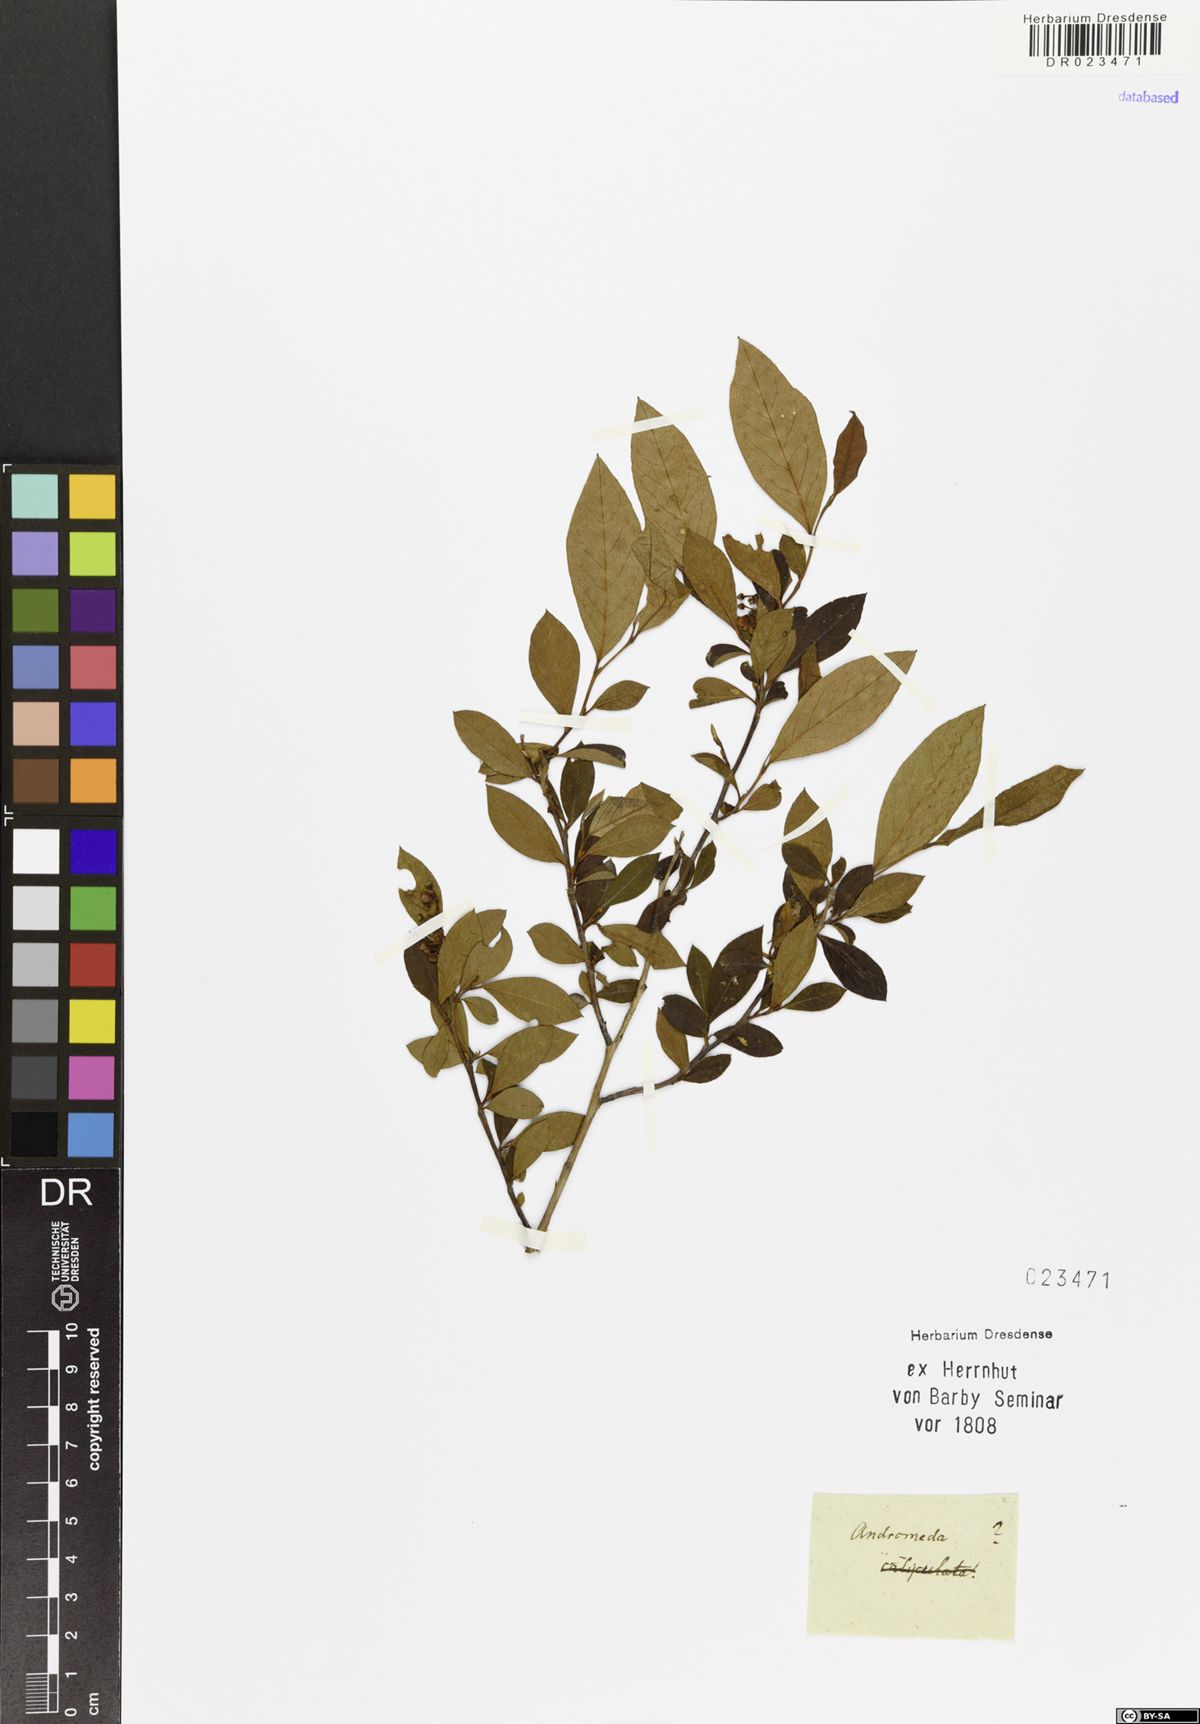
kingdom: Plantae
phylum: Tracheophyta
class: Magnoliopsida
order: Ericales
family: Ericaceae
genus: Chamaedaphne
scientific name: Chamaedaphne calyculata
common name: Leatherleaf
